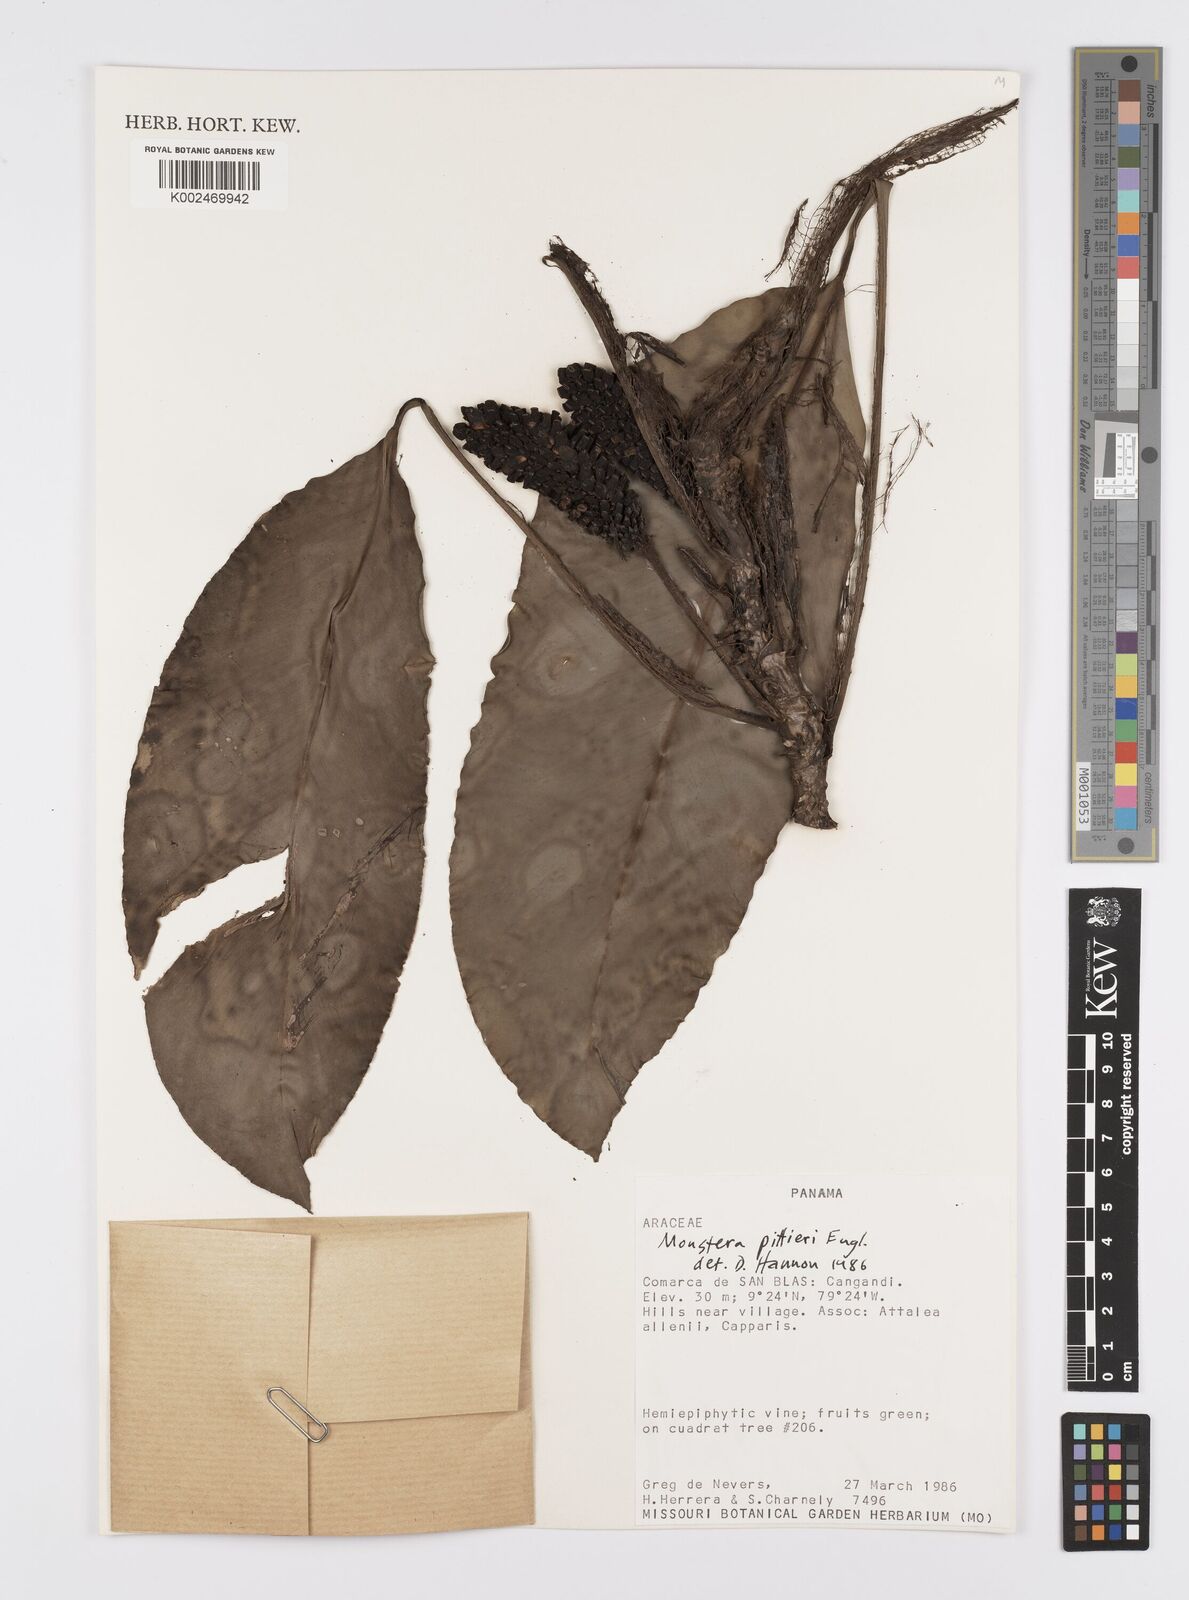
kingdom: Plantae
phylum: Tracheophyta
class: Liliopsida
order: Alismatales
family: Araceae
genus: Monstera
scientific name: Monstera pittieri
